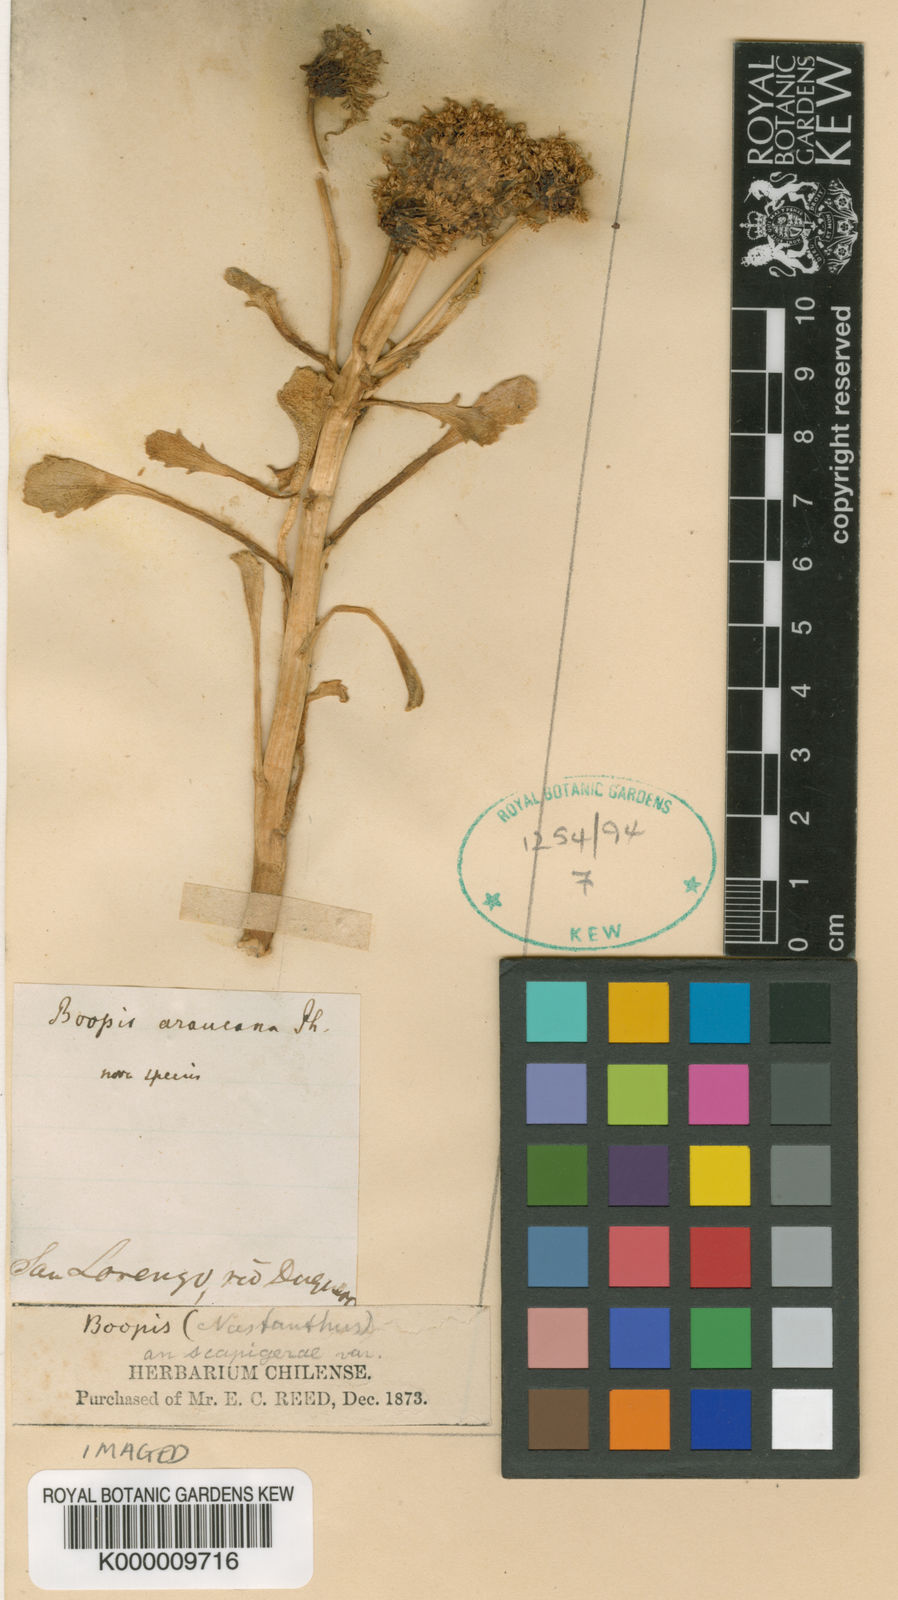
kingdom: Plantae
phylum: Tracheophyta
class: Magnoliopsida
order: Asterales
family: Calyceraceae
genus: Boopis
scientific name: Boopis
